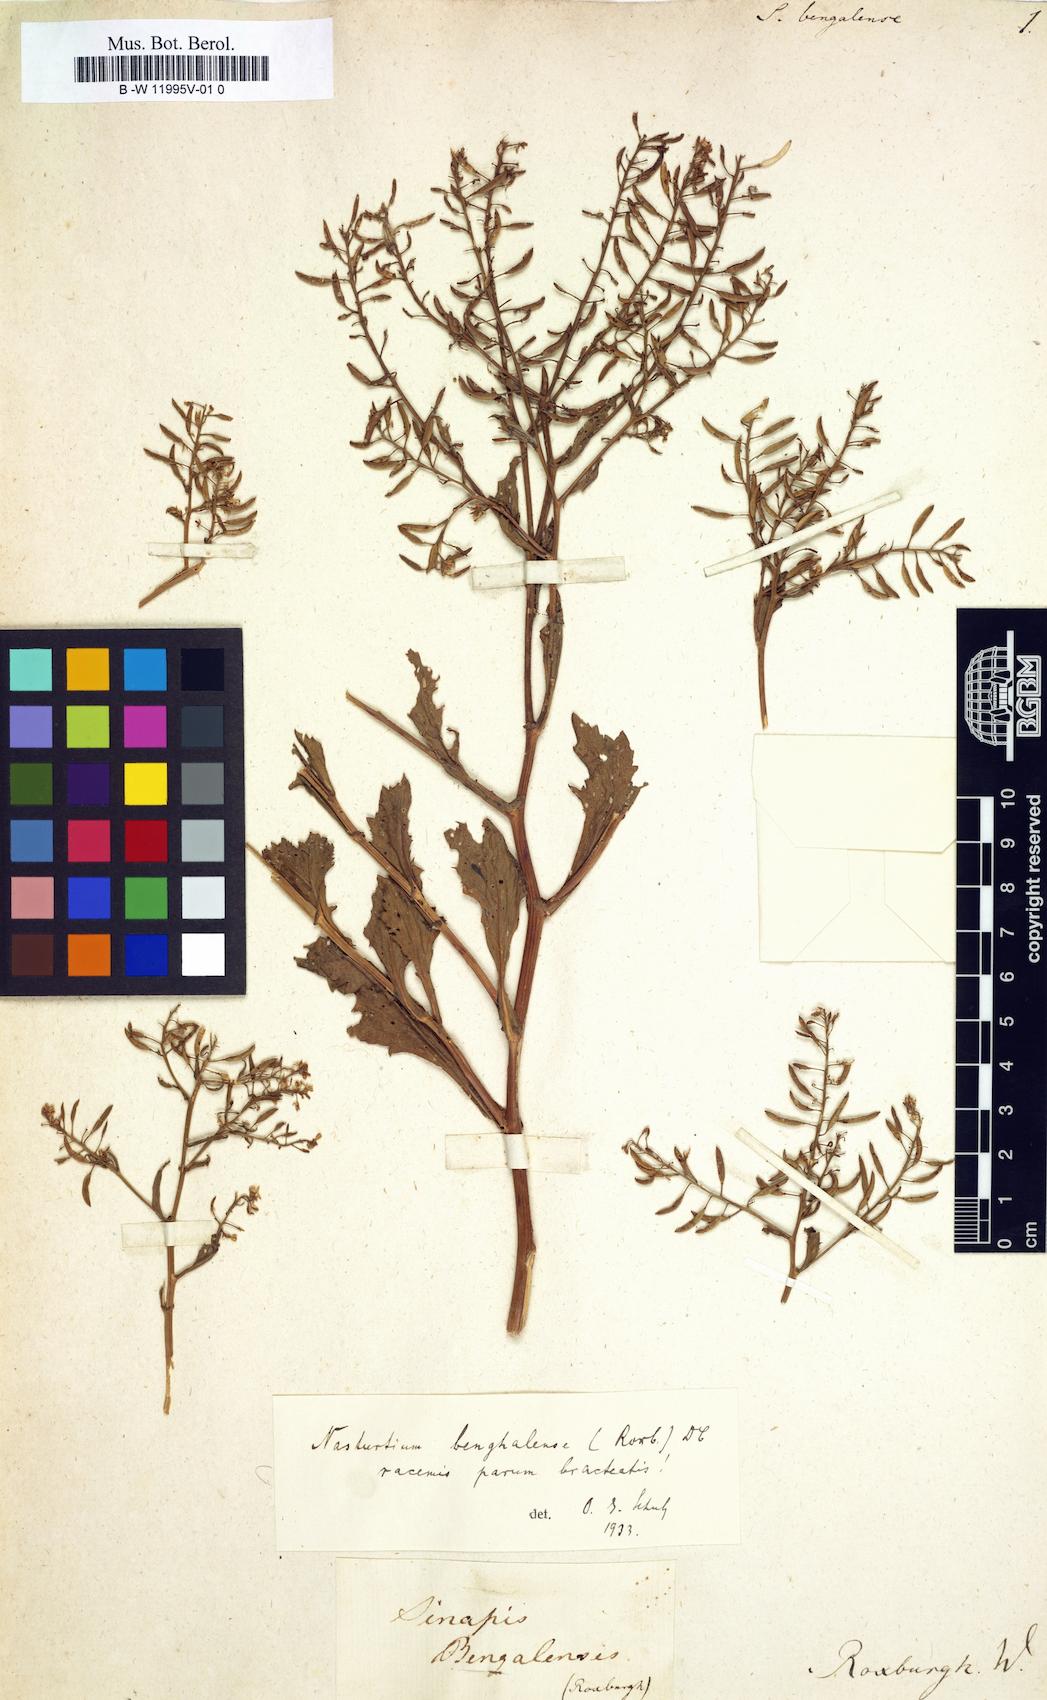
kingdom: Plantae
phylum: Tracheophyta
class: Magnoliopsida
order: Brassicales
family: Brassicaceae
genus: Sisymbrium
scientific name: Sisymbrium
